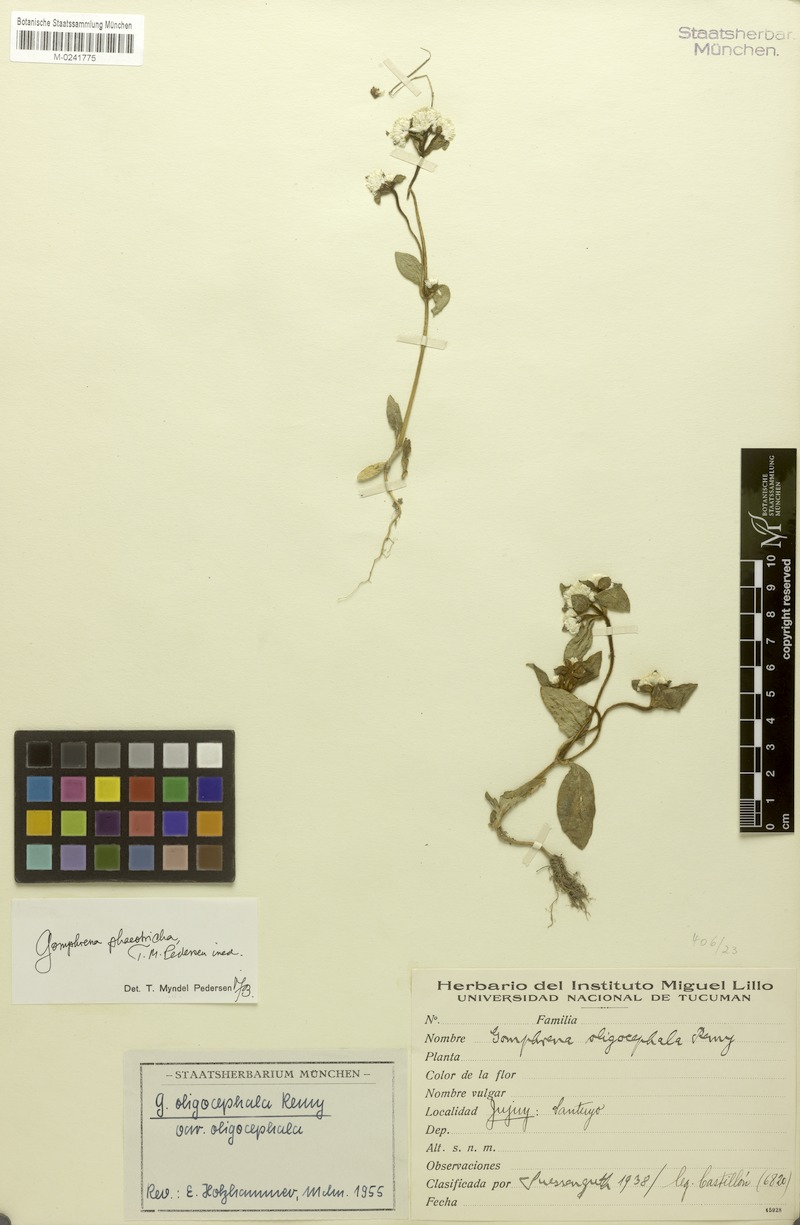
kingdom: Plantae
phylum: Tracheophyta
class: Magnoliopsida
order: Caryophyllales
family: Amaranthaceae
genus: Gomphrena
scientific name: Gomphrena phaeotricha
